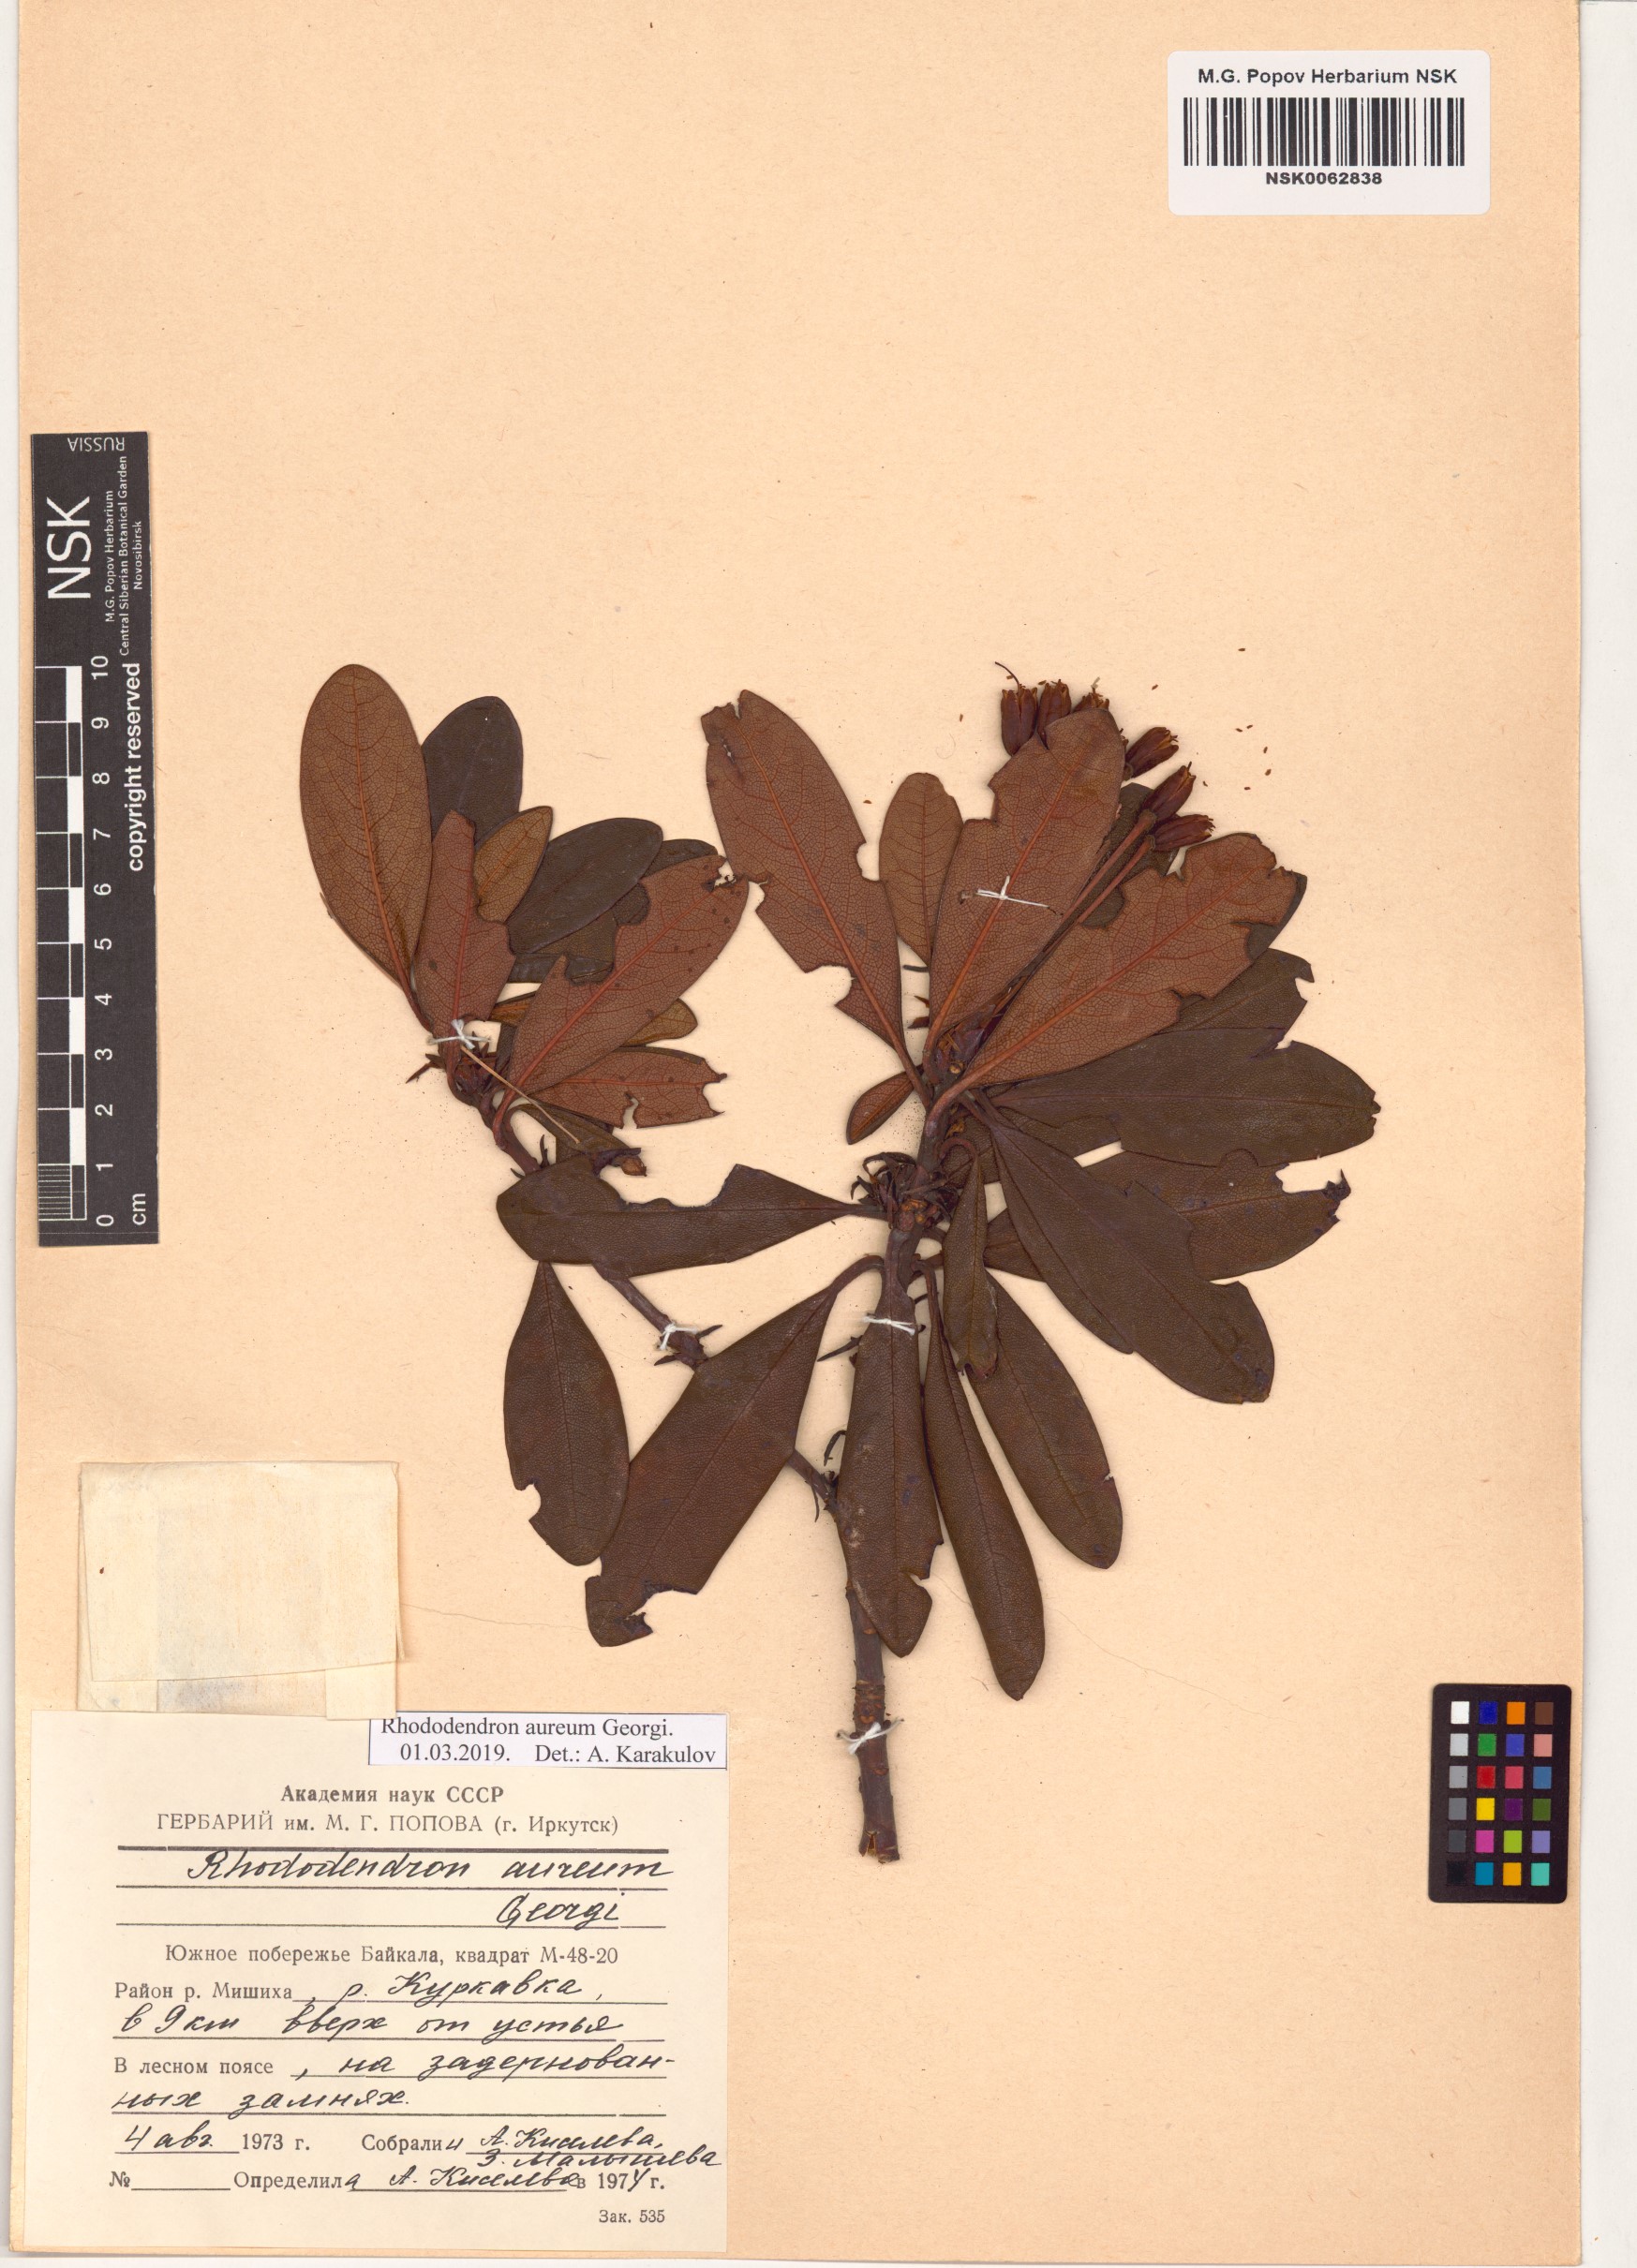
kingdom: Plantae
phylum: Tracheophyta
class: Magnoliopsida
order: Ericales
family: Ericaceae
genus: Rhododendron
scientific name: Rhododendron aureum
